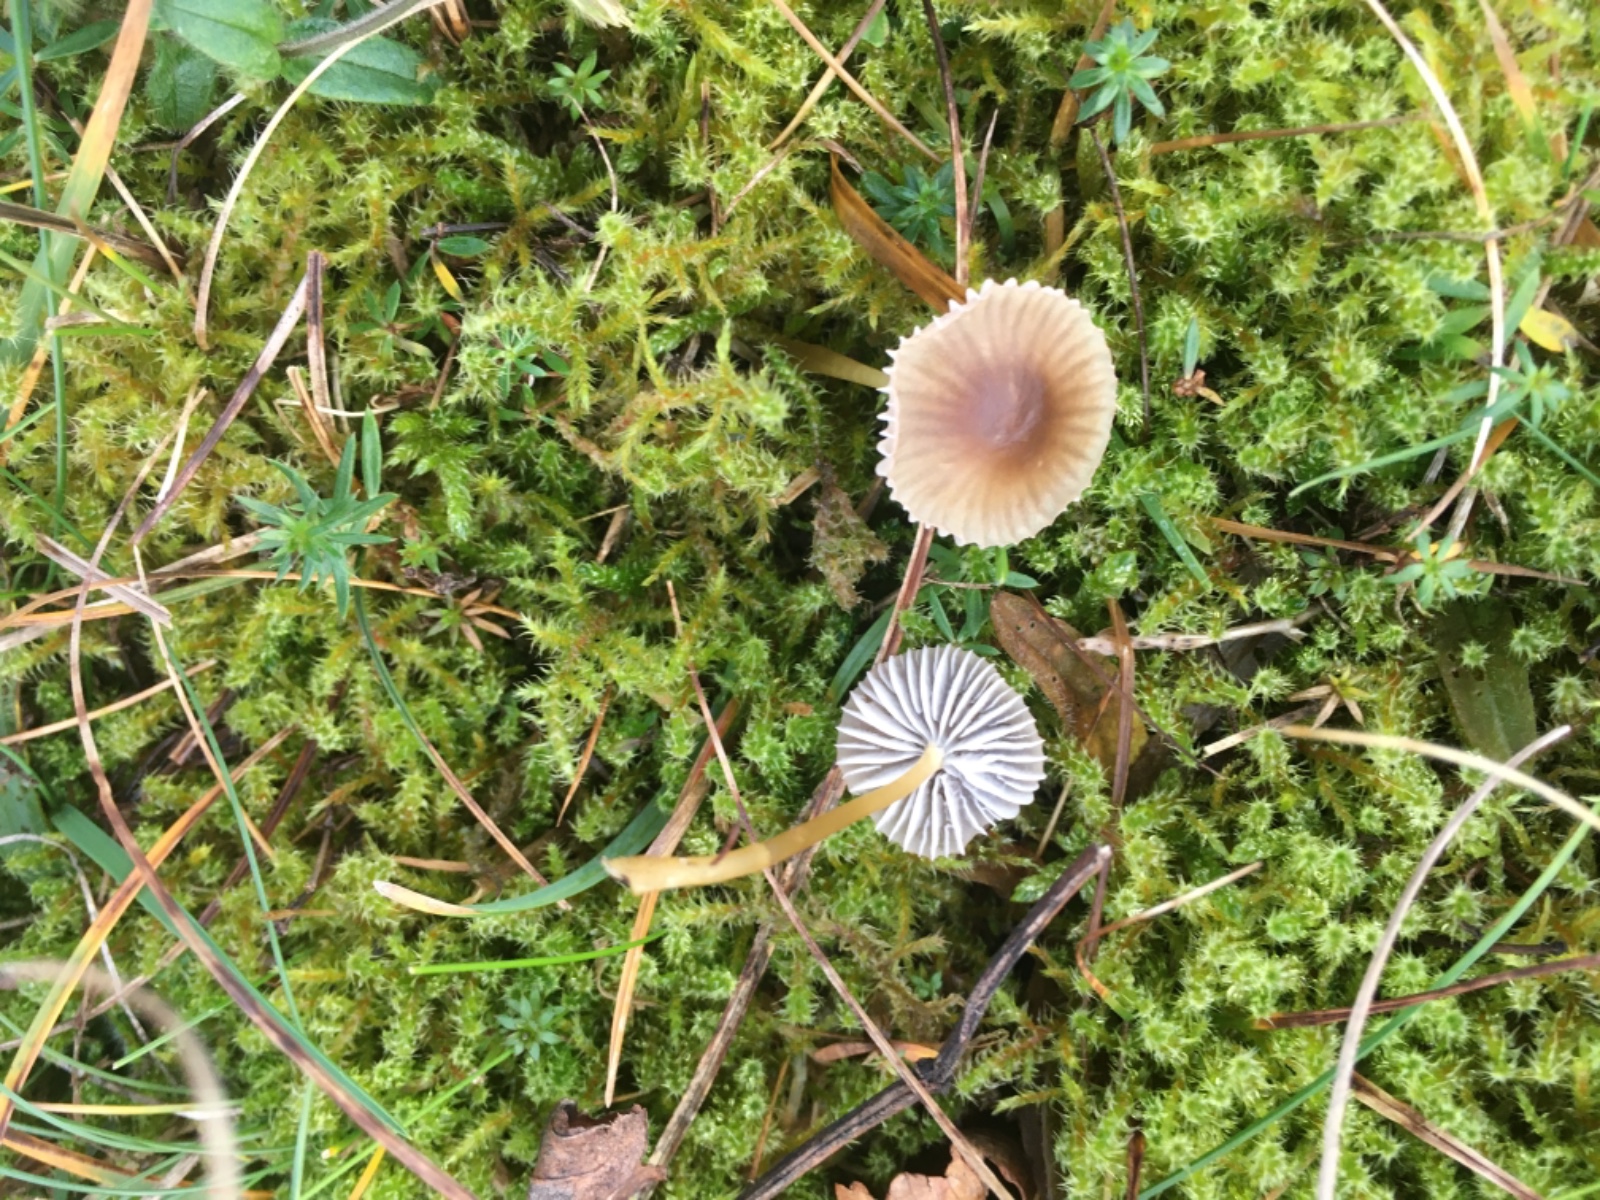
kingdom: Fungi
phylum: Basidiomycota
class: Agaricomycetes
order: Agaricales
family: Mycenaceae
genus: Mycena
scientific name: Mycena
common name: huesvamp
